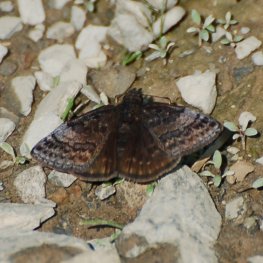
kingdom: Animalia
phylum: Arthropoda
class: Insecta
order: Lepidoptera
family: Hesperiidae
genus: Erynnis
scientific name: Erynnis icelus
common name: Dreamy Duskywing
